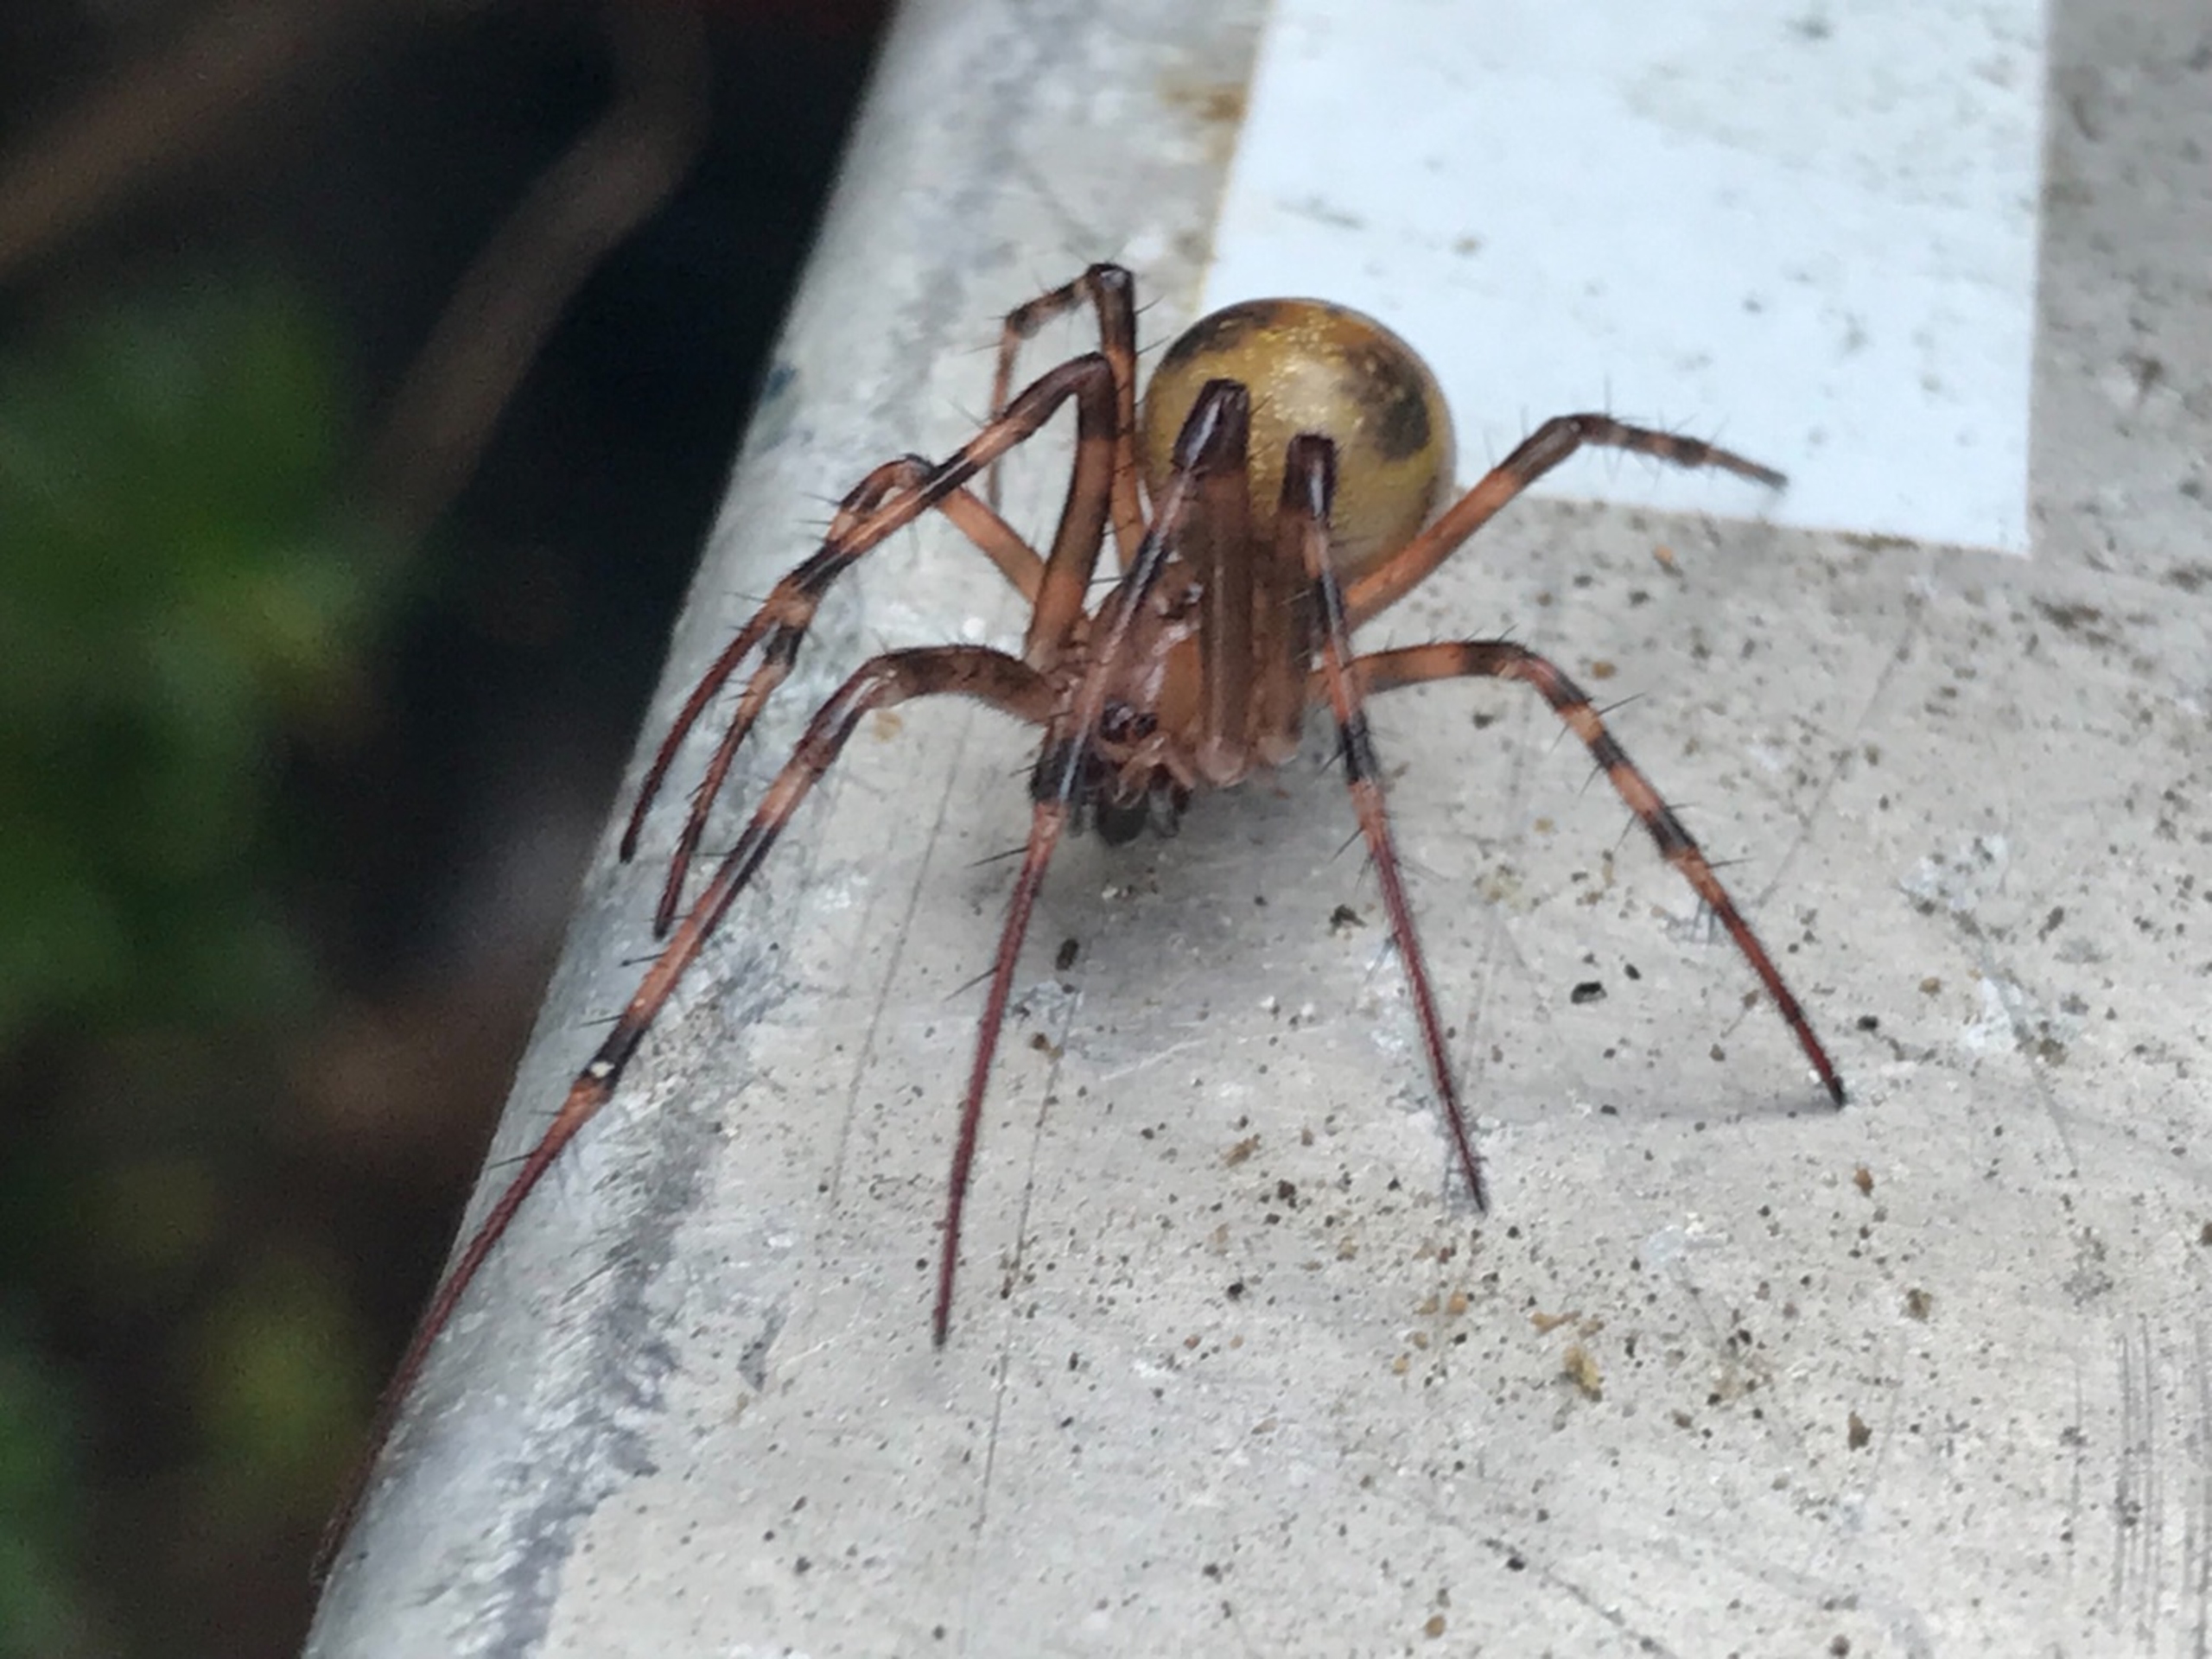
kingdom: Animalia
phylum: Arthropoda
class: Arachnida
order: Araneae
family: Tetragnathidae
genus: Meta
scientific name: Meta menardi
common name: Grotteedderkop
